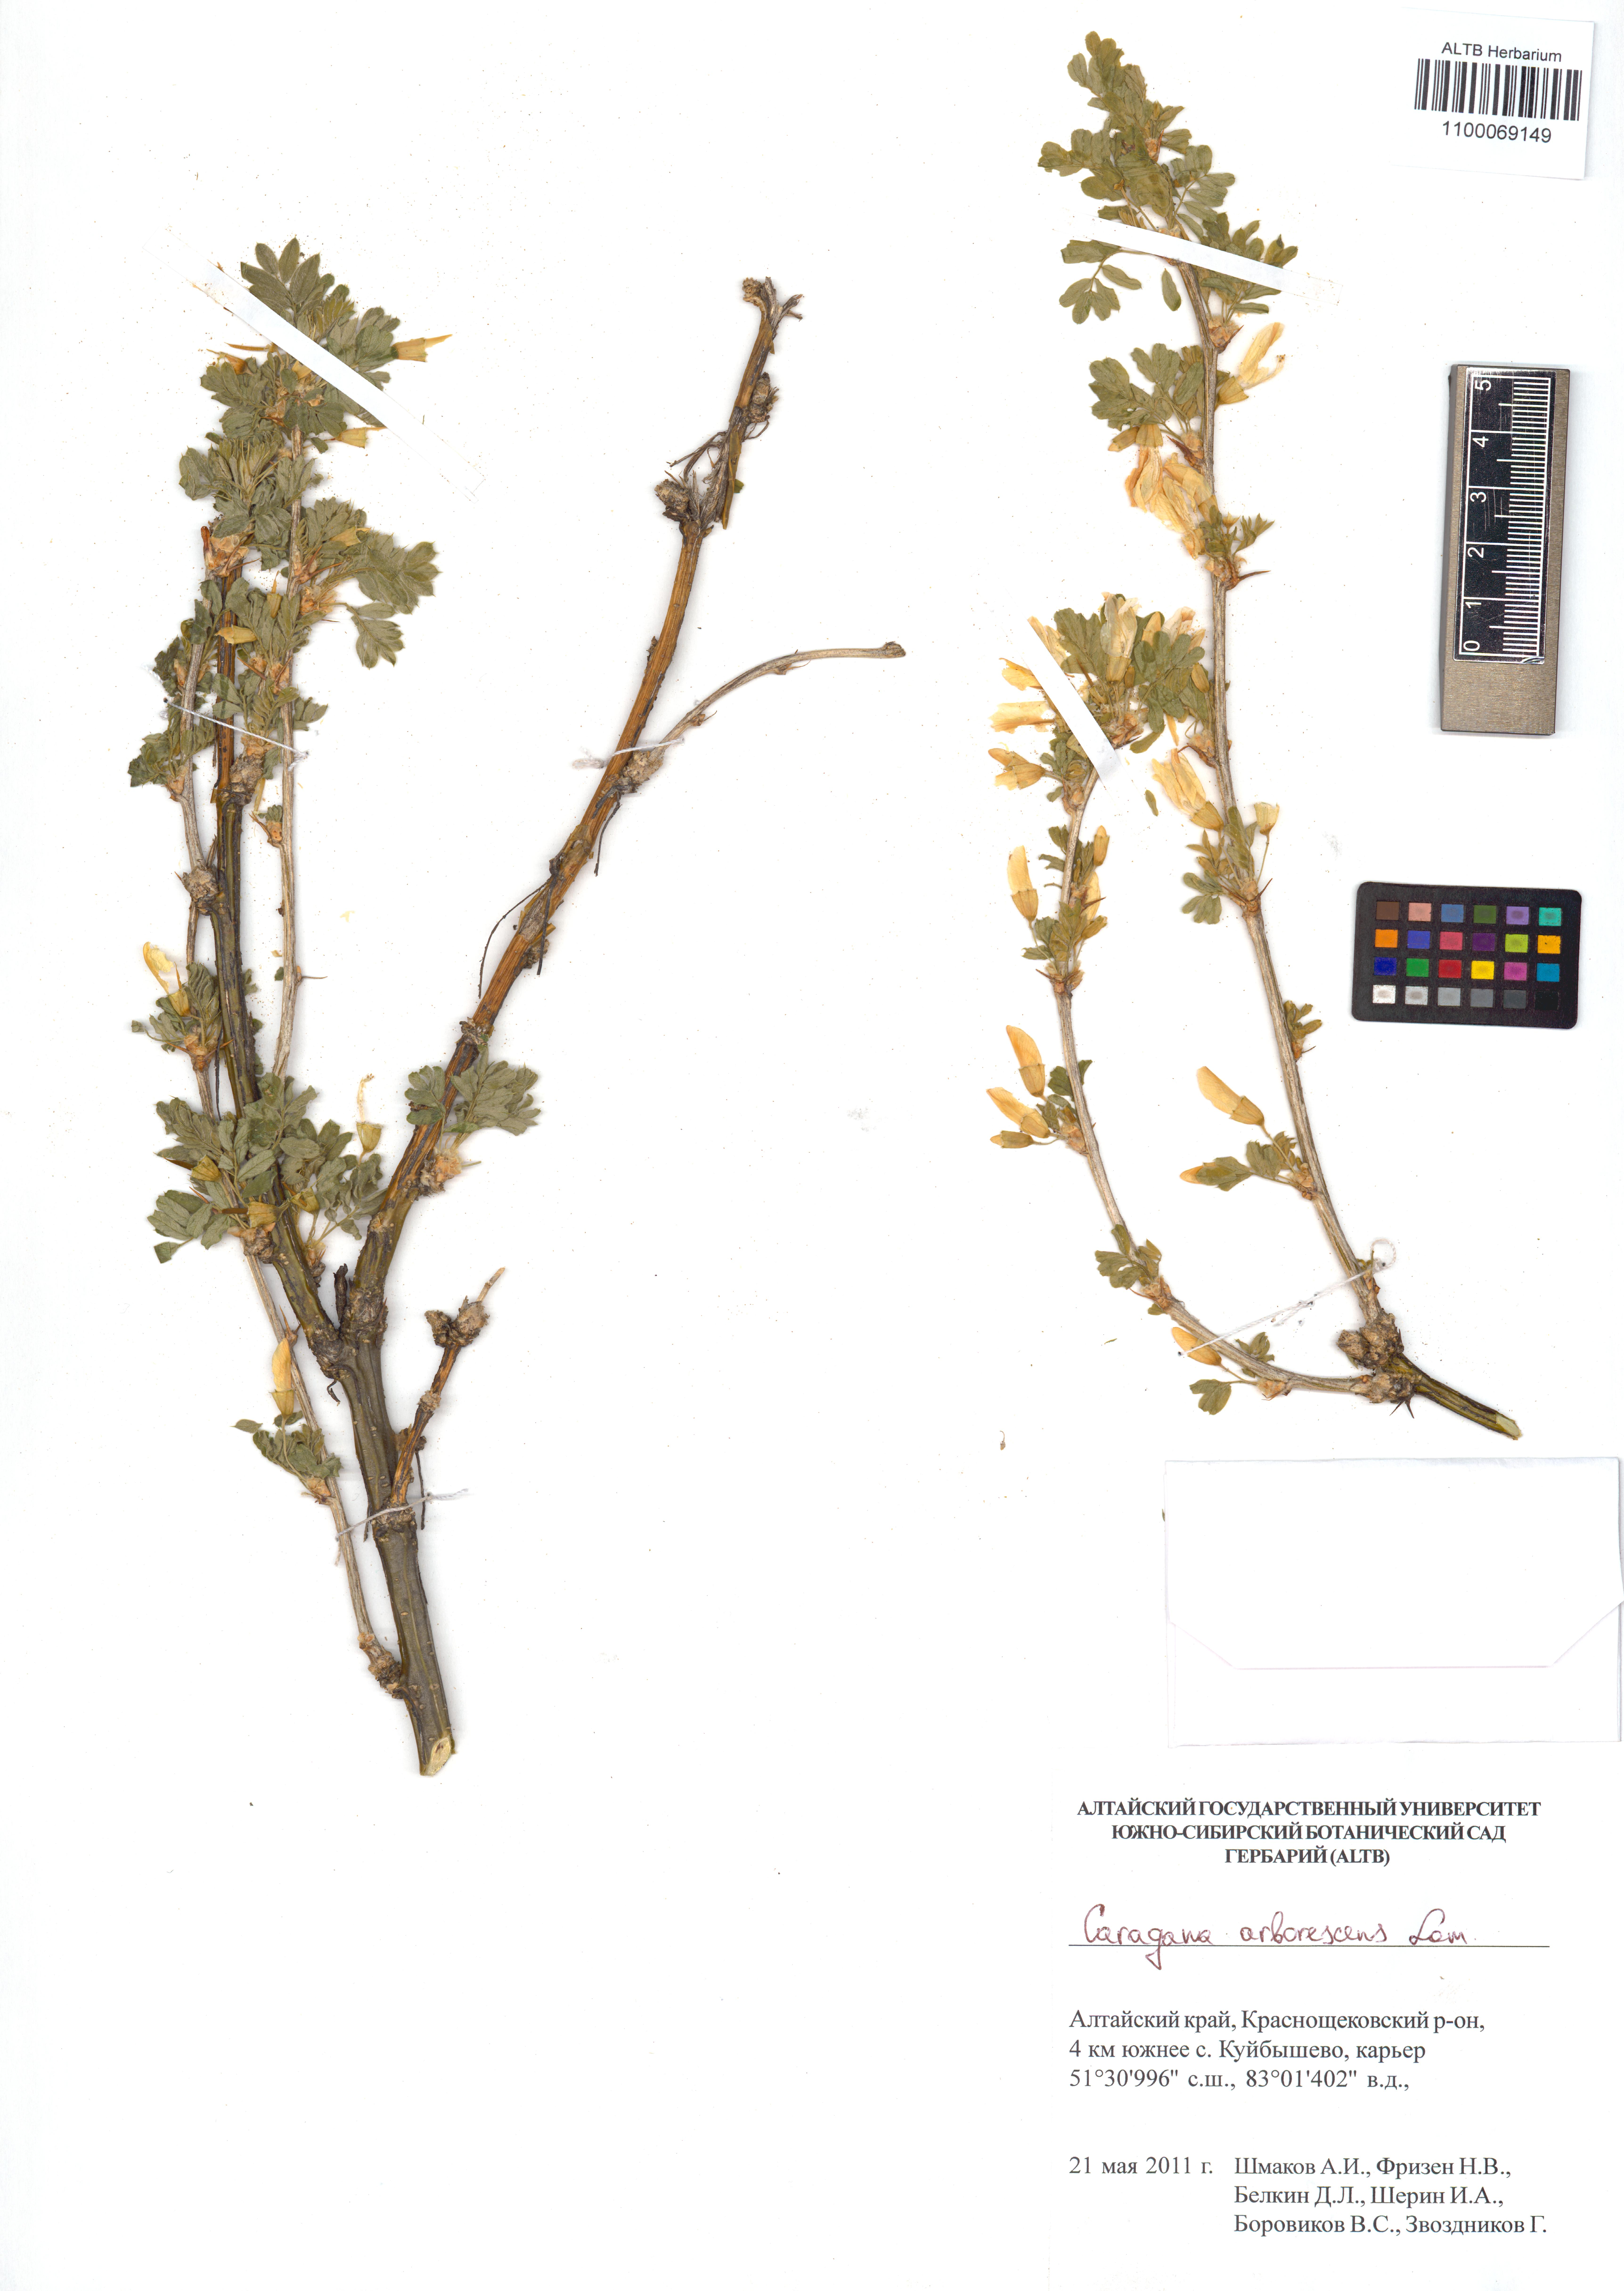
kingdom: Plantae
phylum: Tracheophyta
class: Magnoliopsida
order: Fabales
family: Fabaceae
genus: Caragana
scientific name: Caragana arborescens
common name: Siberian peashrub
